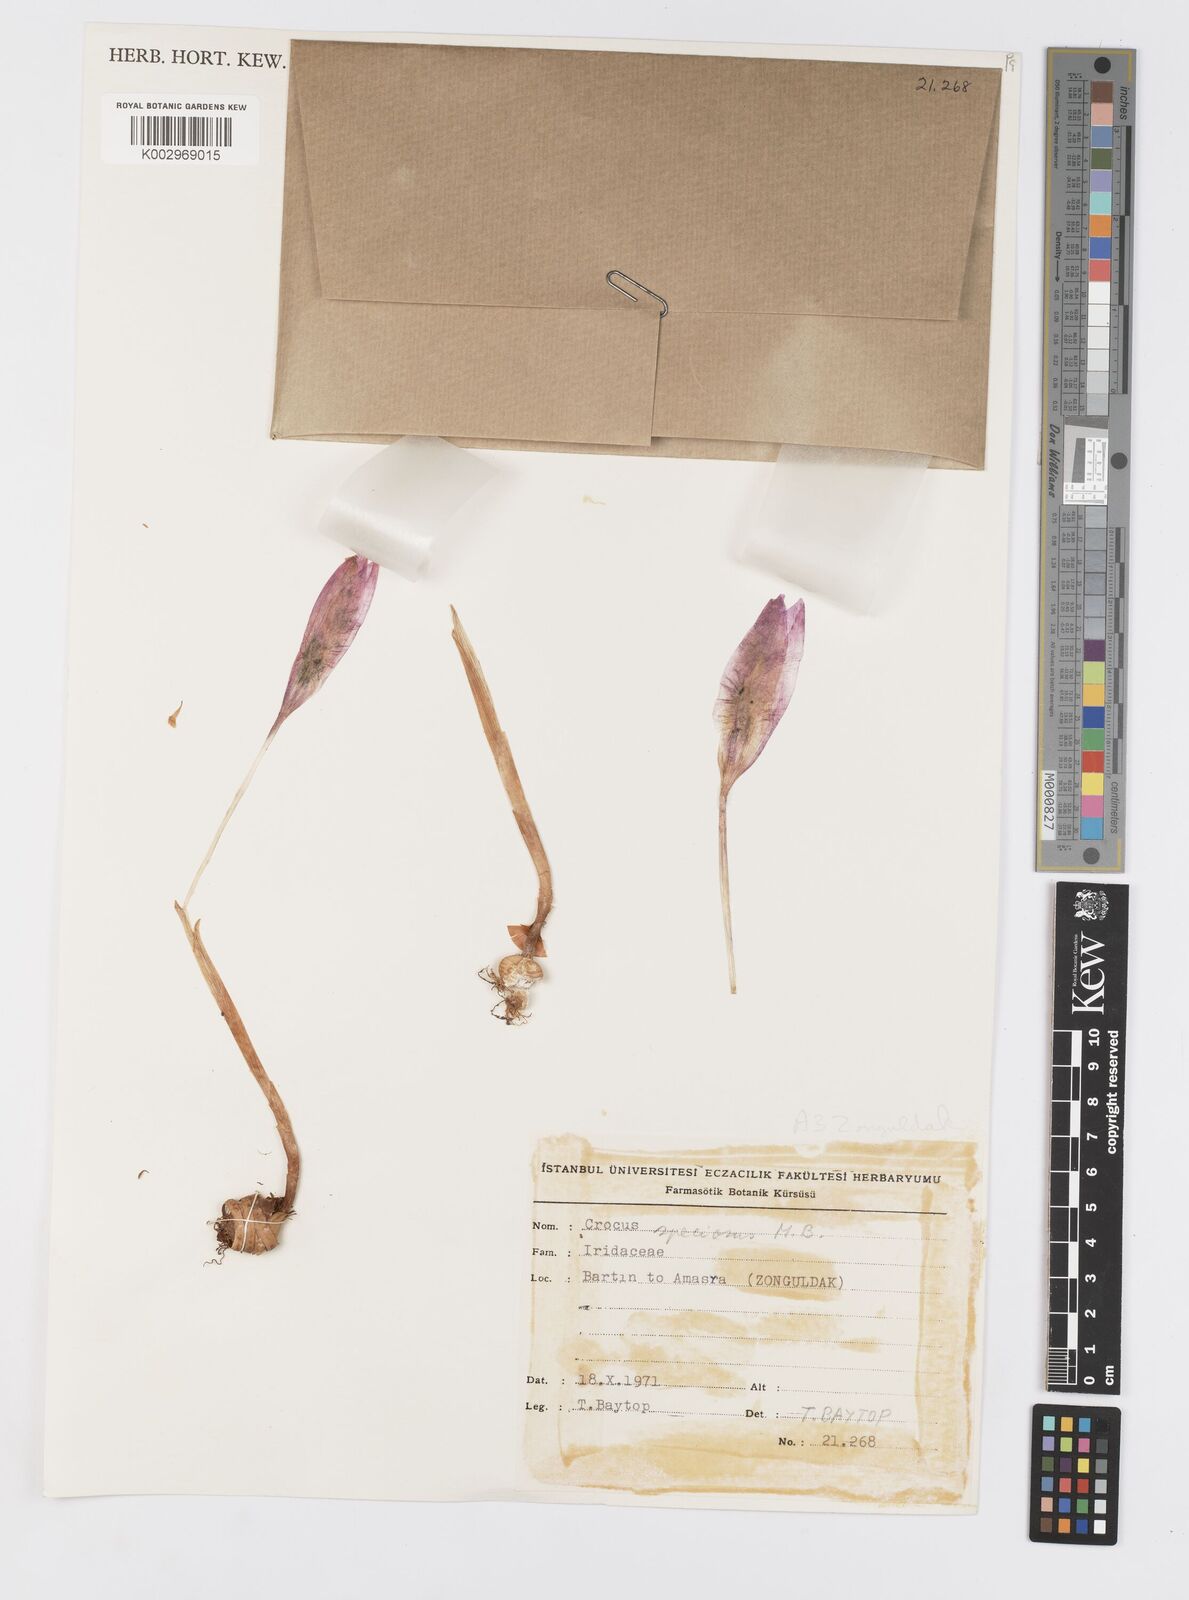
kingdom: Plantae
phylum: Tracheophyta
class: Liliopsida
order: Asparagales
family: Iridaceae
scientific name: Iridaceae
